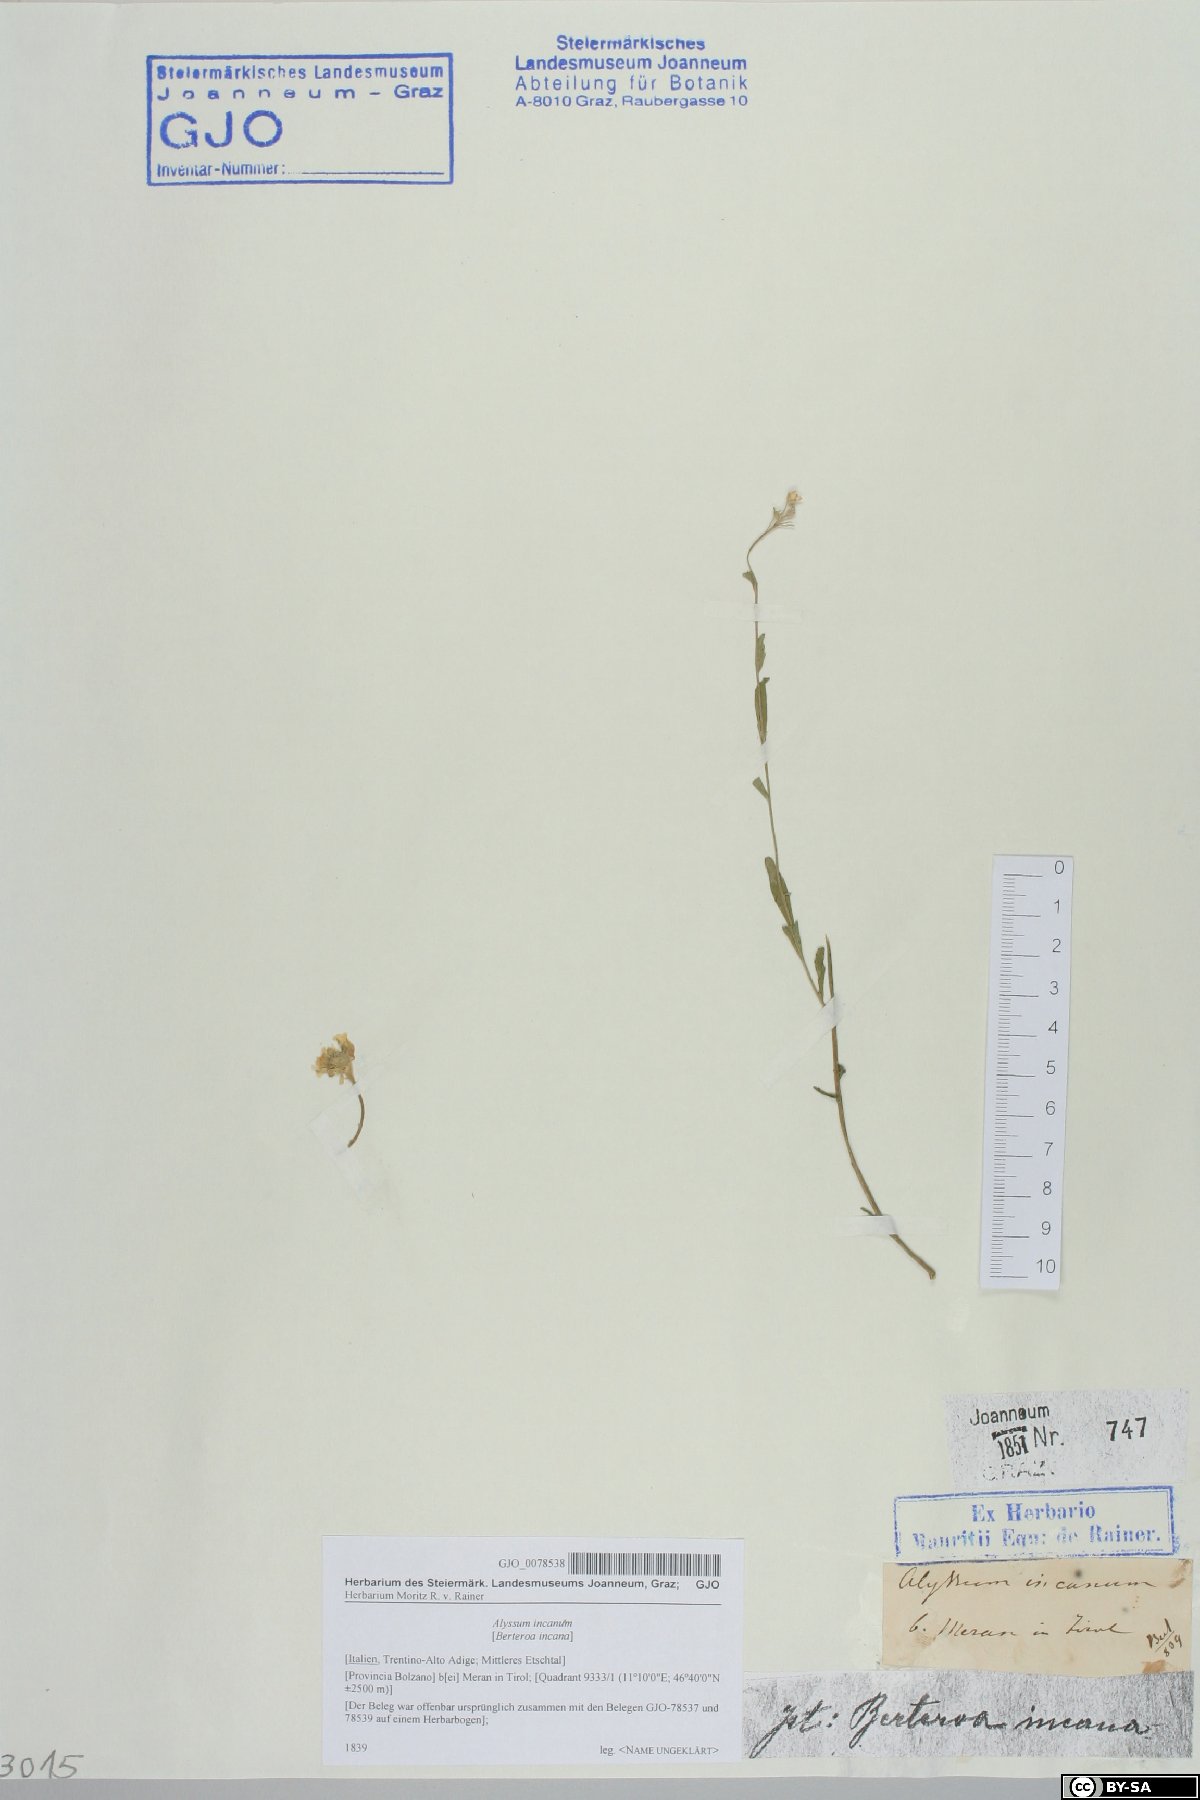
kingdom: Plantae
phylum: Tracheophyta
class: Magnoliopsida
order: Brassicales
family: Brassicaceae
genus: Berteroa
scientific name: Berteroa incana
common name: Hoary alison
